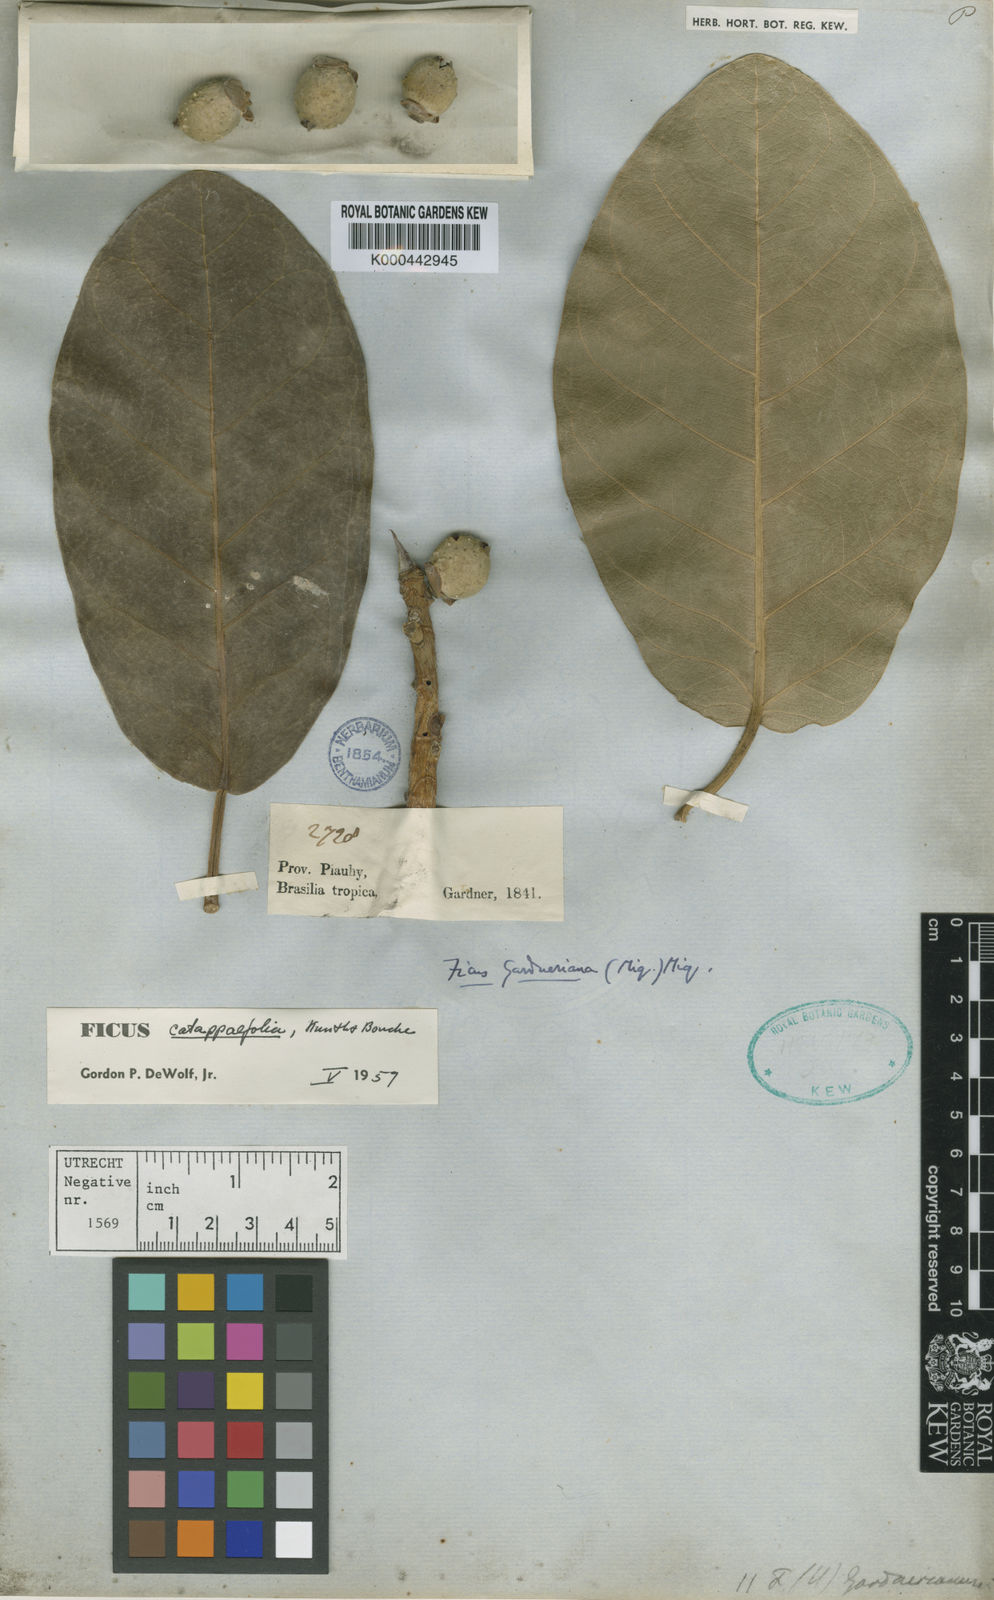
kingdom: Plantae
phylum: Tracheophyta
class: Magnoliopsida
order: Rosales
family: Moraceae
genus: Ficus
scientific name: Ficus obtusifolia
